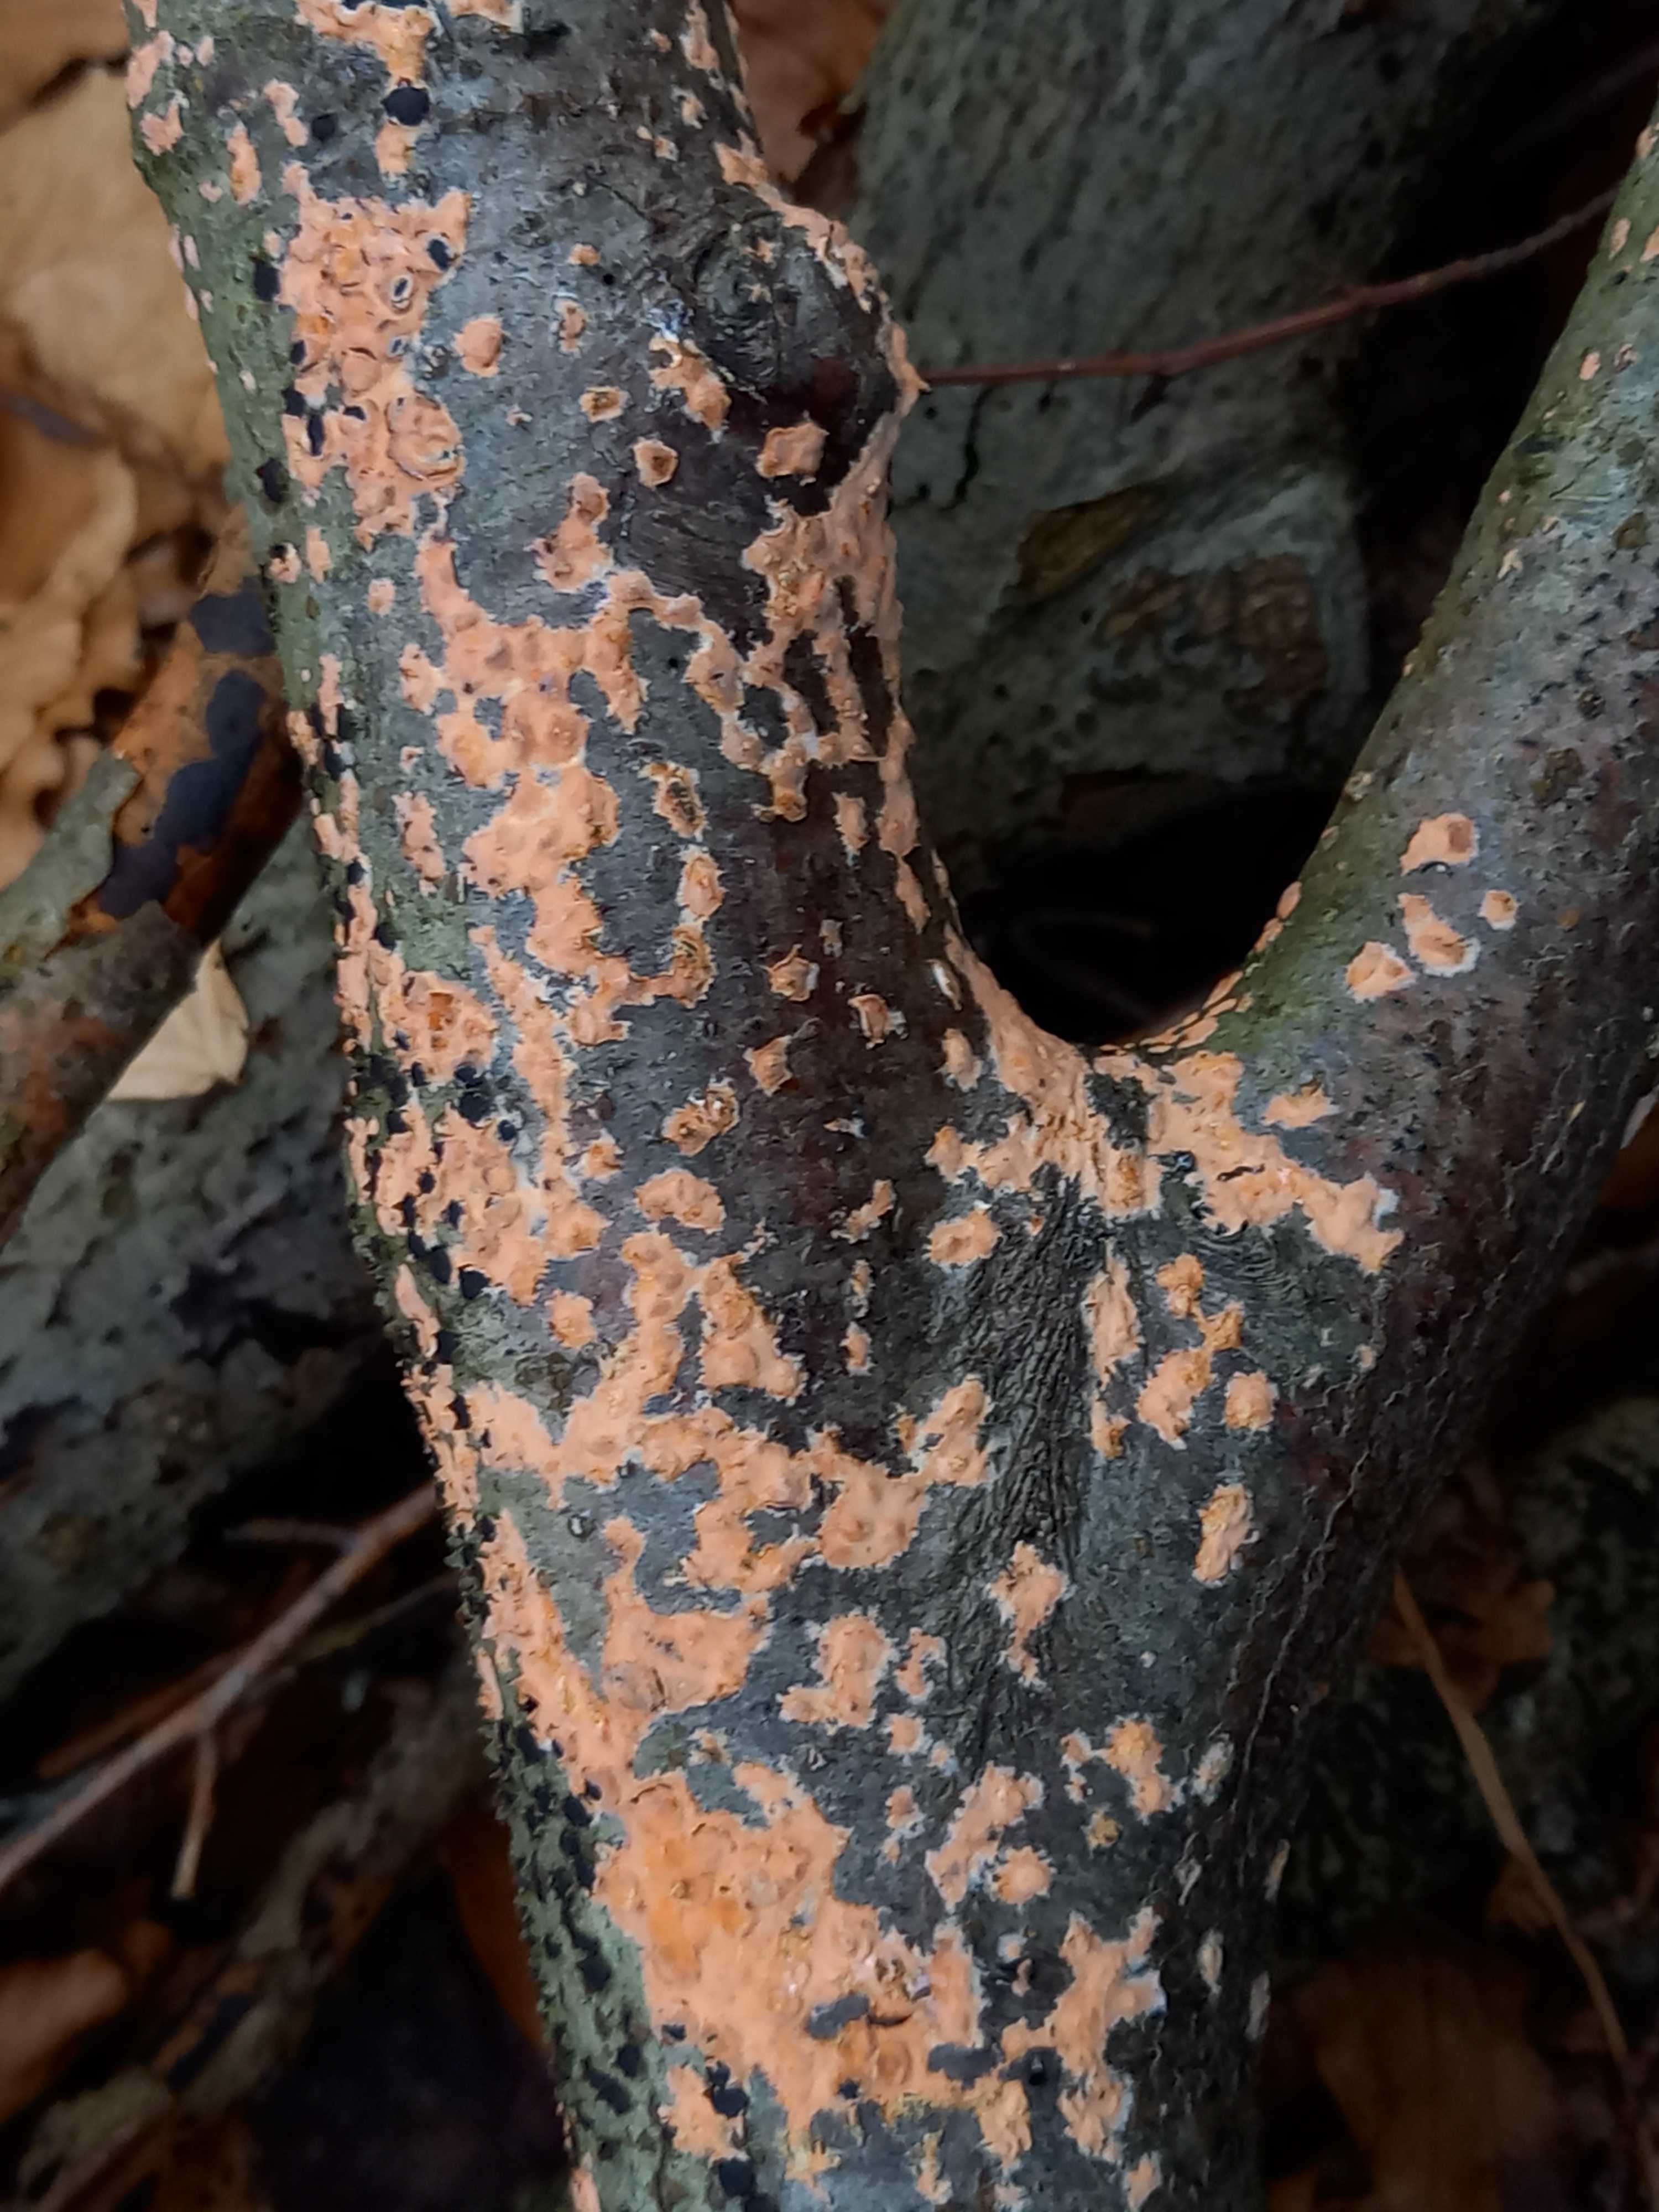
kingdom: Fungi
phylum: Basidiomycota
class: Agaricomycetes
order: Russulales
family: Peniophoraceae
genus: Peniophora
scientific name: Peniophora incarnata
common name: laksefarvet voksskind
